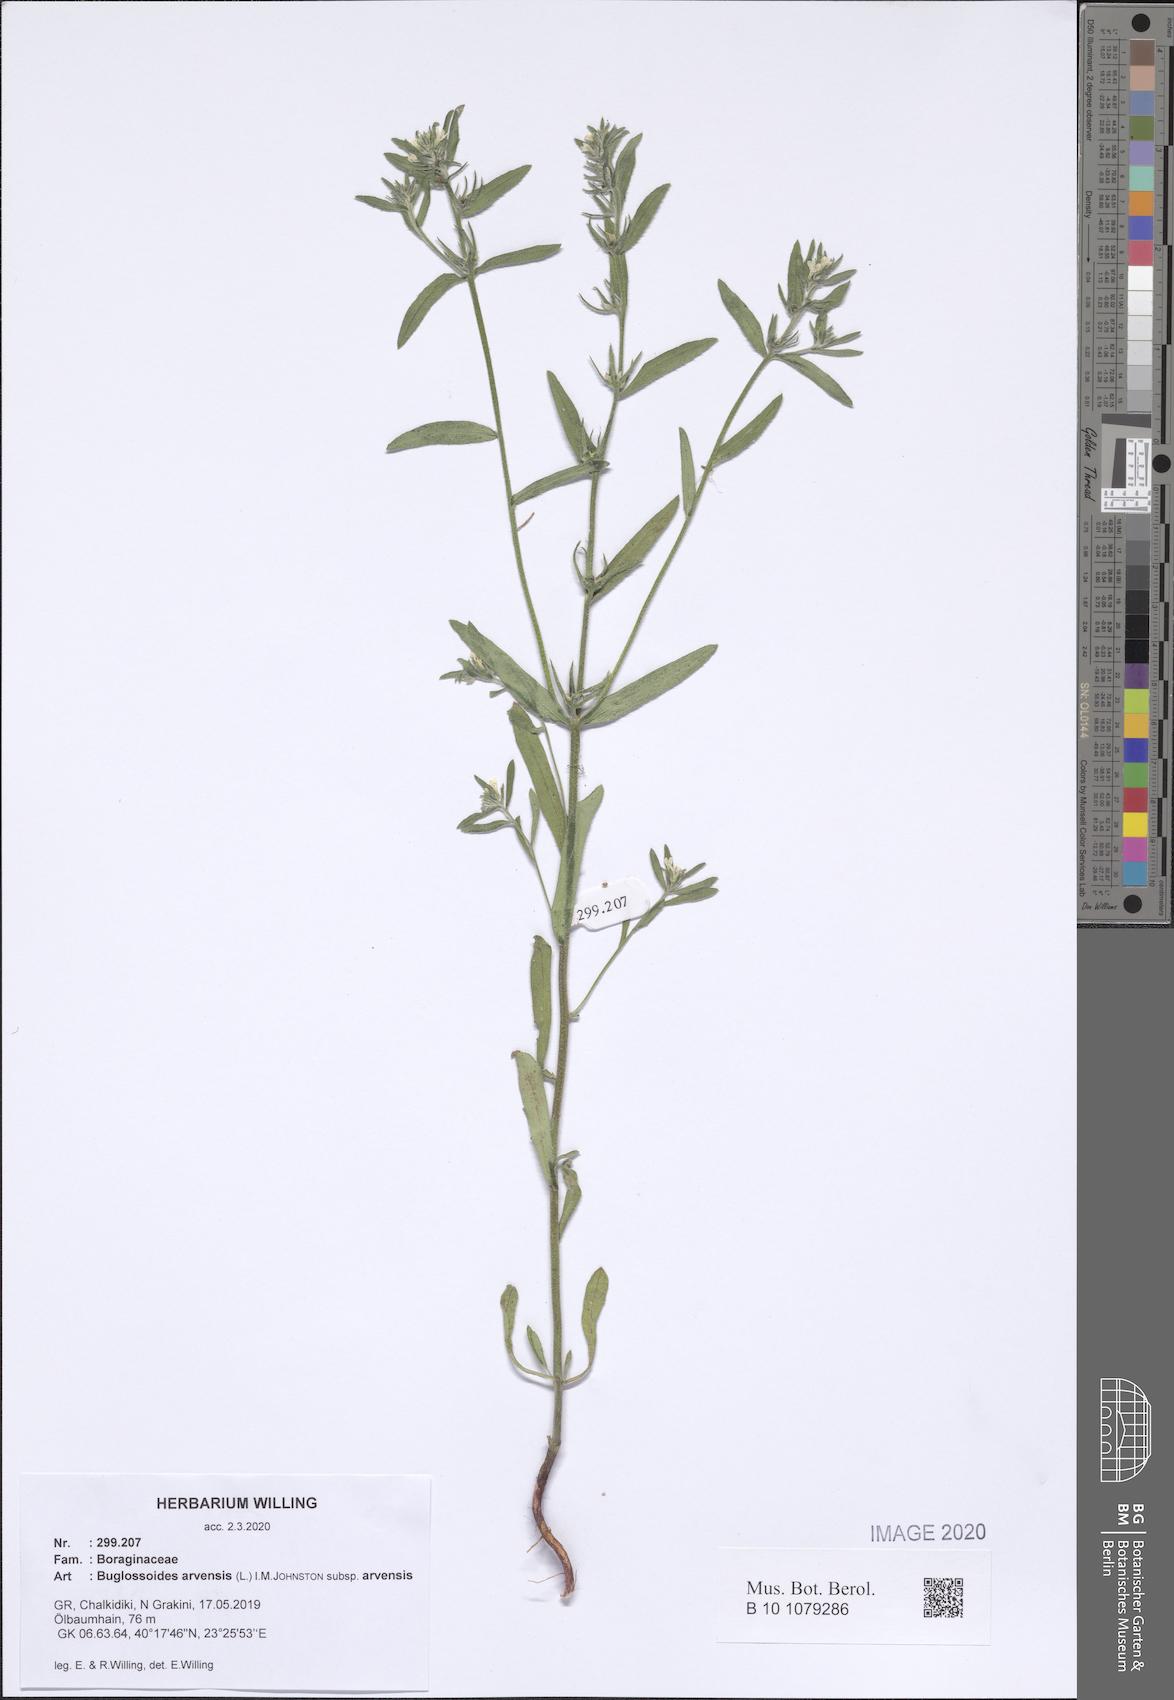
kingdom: Plantae
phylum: Tracheophyta
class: Magnoliopsida
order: Boraginales
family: Boraginaceae
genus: Buglossoides
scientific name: Buglossoides arvensis
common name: Corn gromwell
